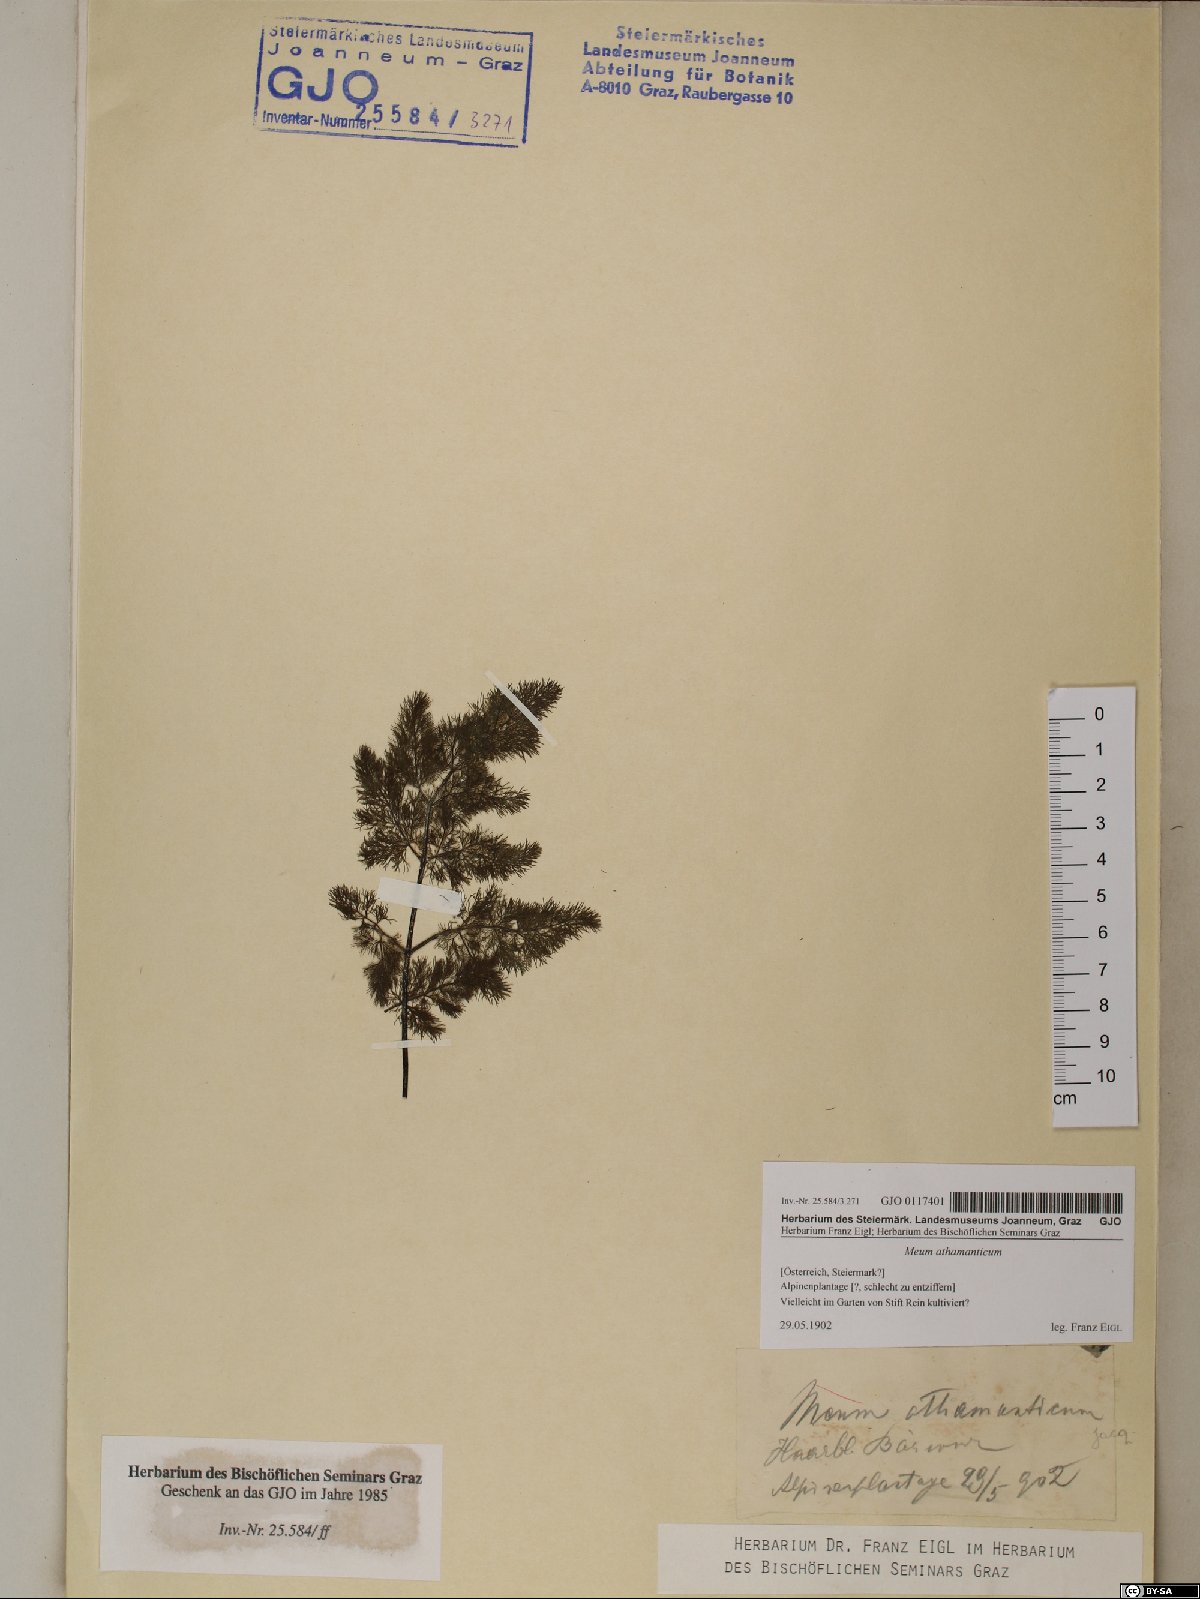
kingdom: Plantae
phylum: Tracheophyta
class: Magnoliopsida
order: Apiales
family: Apiaceae
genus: Meum
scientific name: Meum athamanticum
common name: Spignel
